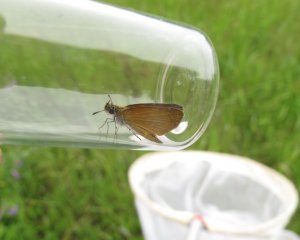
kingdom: Animalia
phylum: Arthropoda
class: Insecta
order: Lepidoptera
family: Hesperiidae
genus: Ancyloxypha
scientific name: Ancyloxypha numitor
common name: Least Skipper
